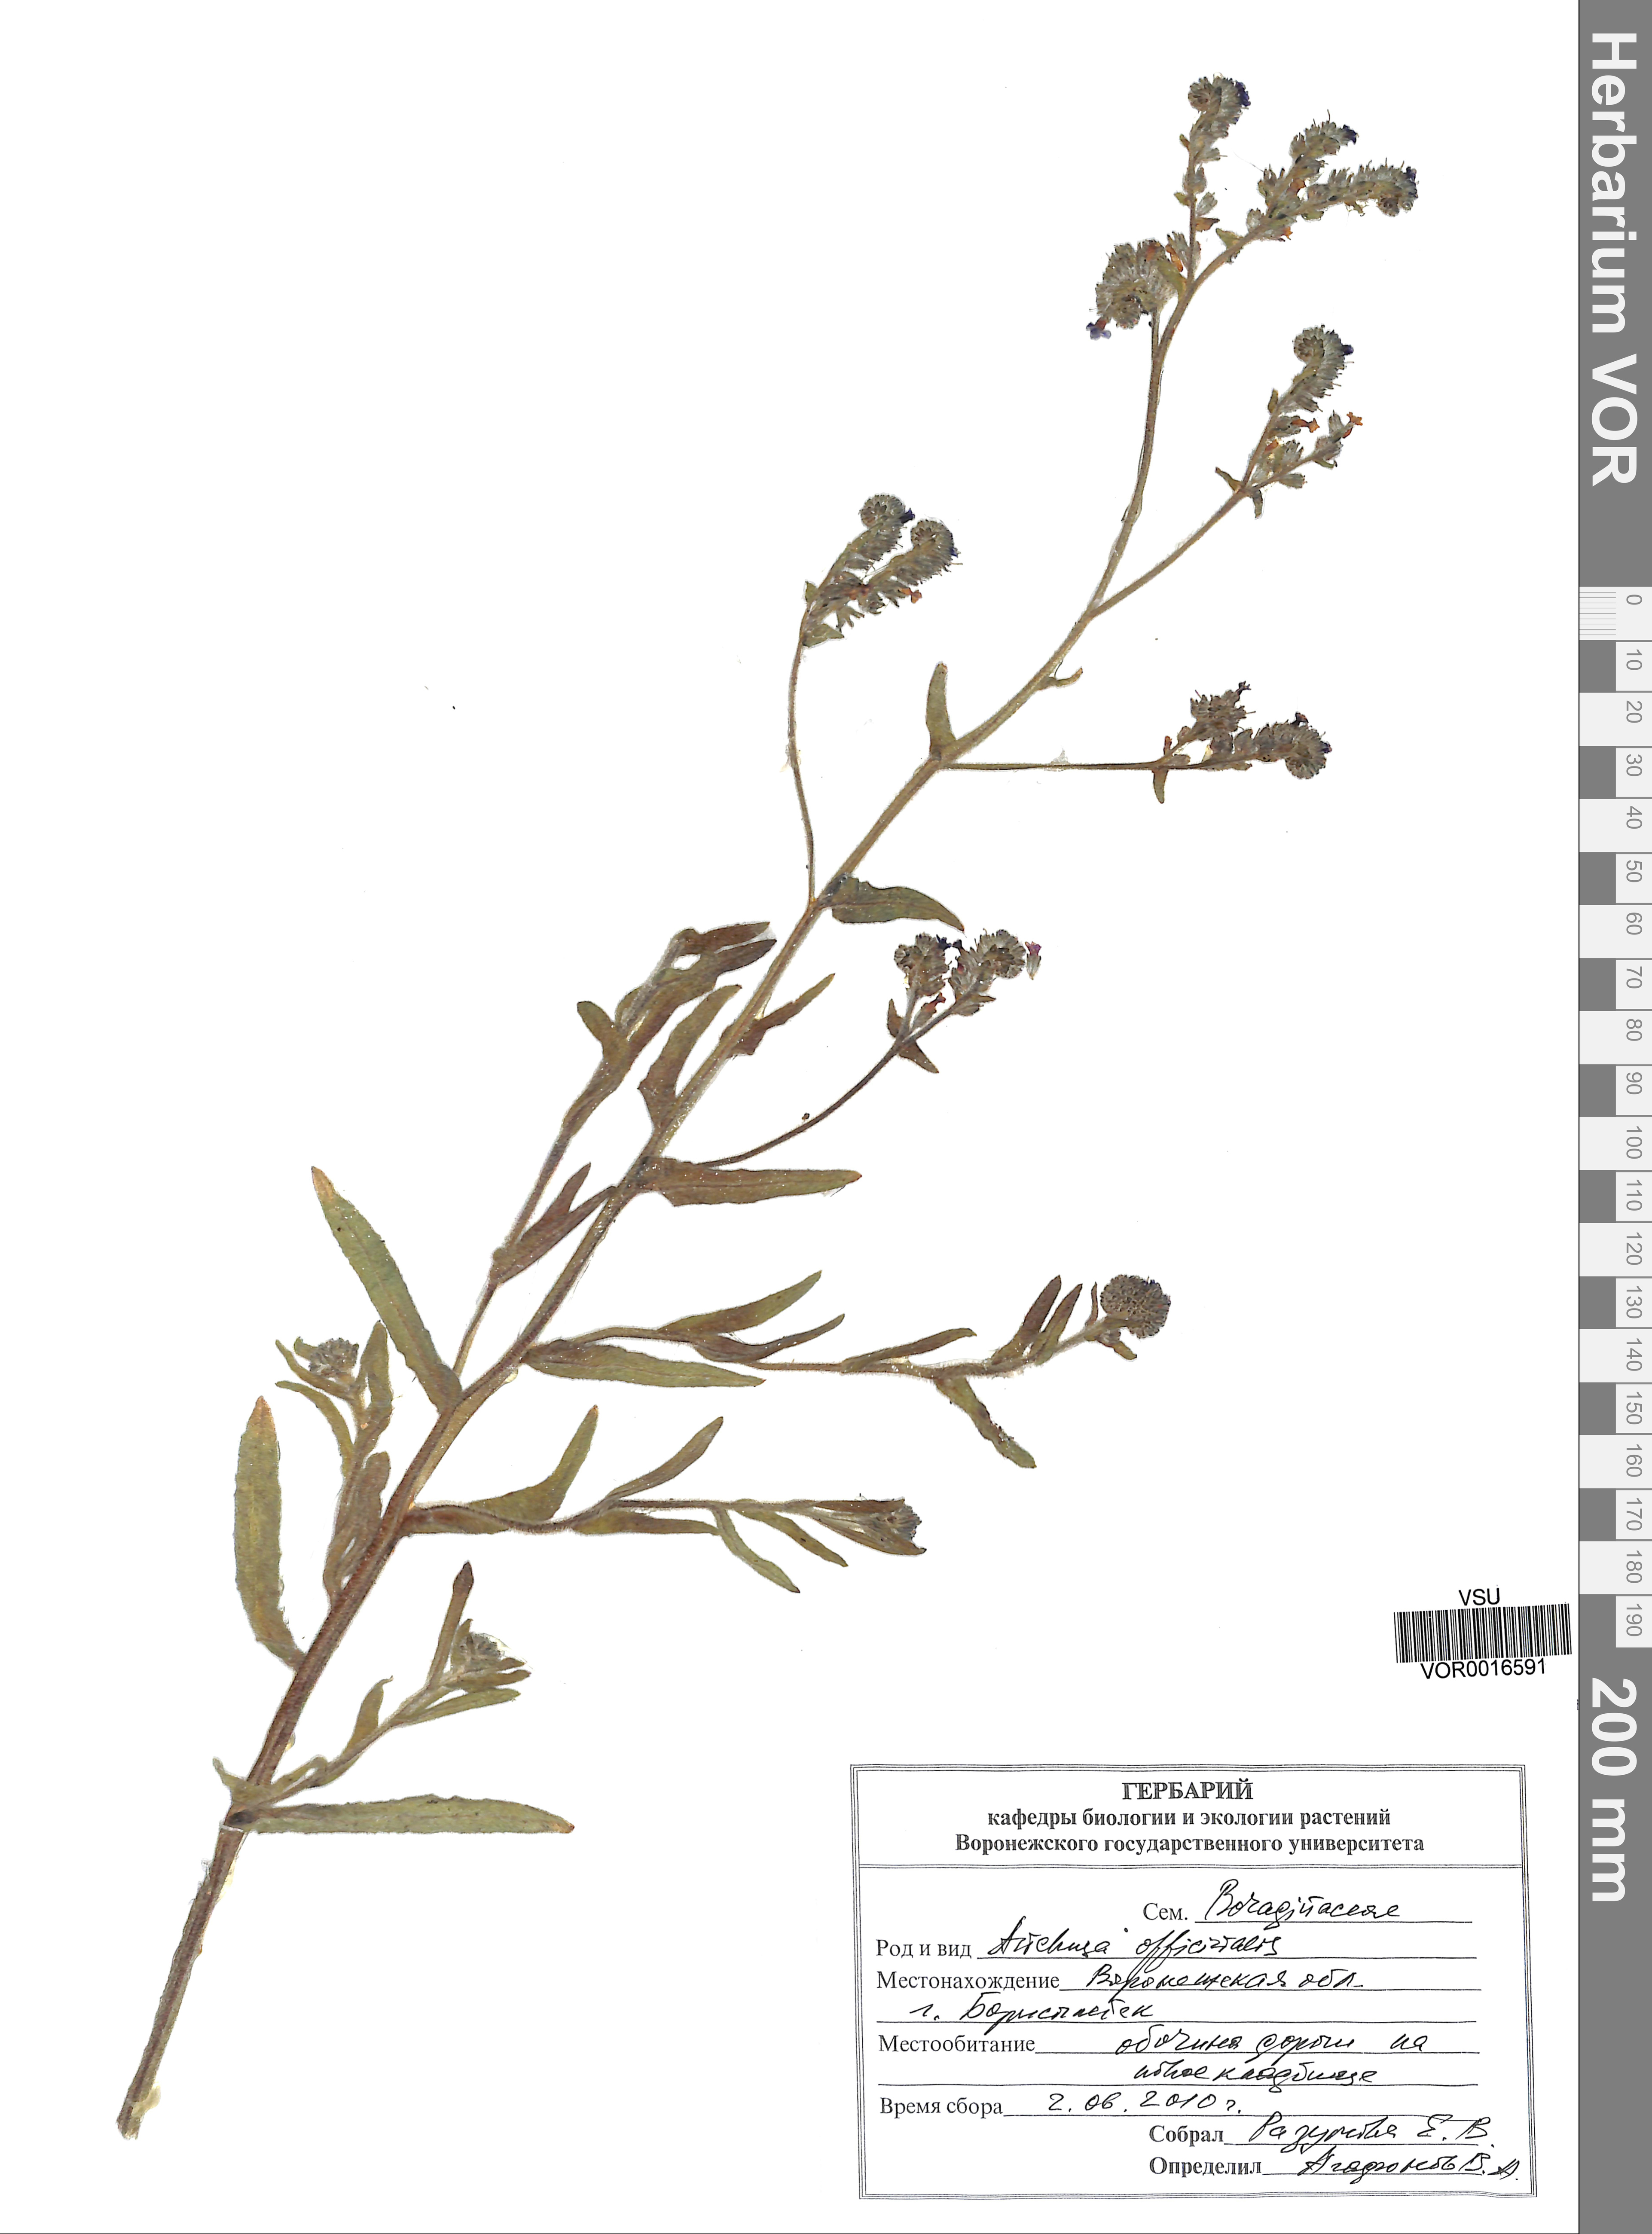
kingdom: Plantae
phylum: Tracheophyta
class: Magnoliopsida
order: Boraginales
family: Boraginaceae
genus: Anchusa
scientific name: Anchusa officinalis
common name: Alkanet
